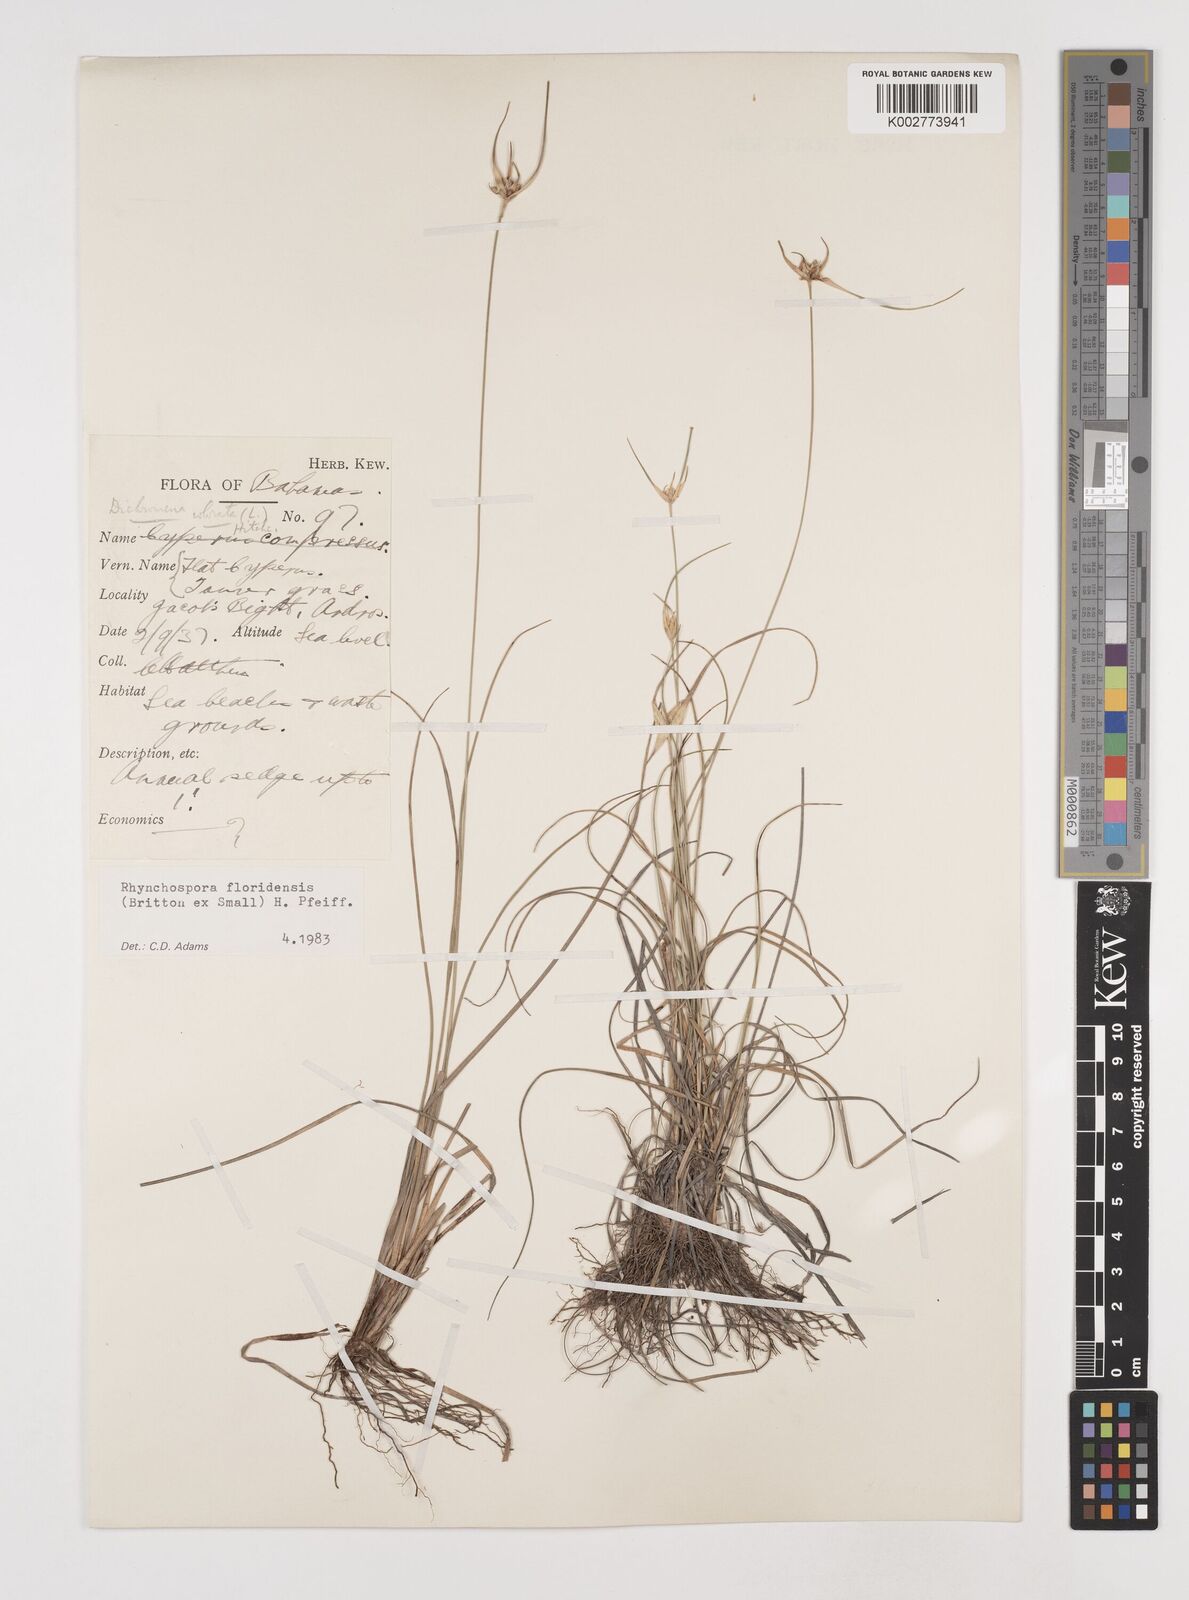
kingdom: Plantae
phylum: Tracheophyta
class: Liliopsida
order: Poales
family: Cyperaceae
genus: Rhynchospora
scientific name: Rhynchospora floridensis
